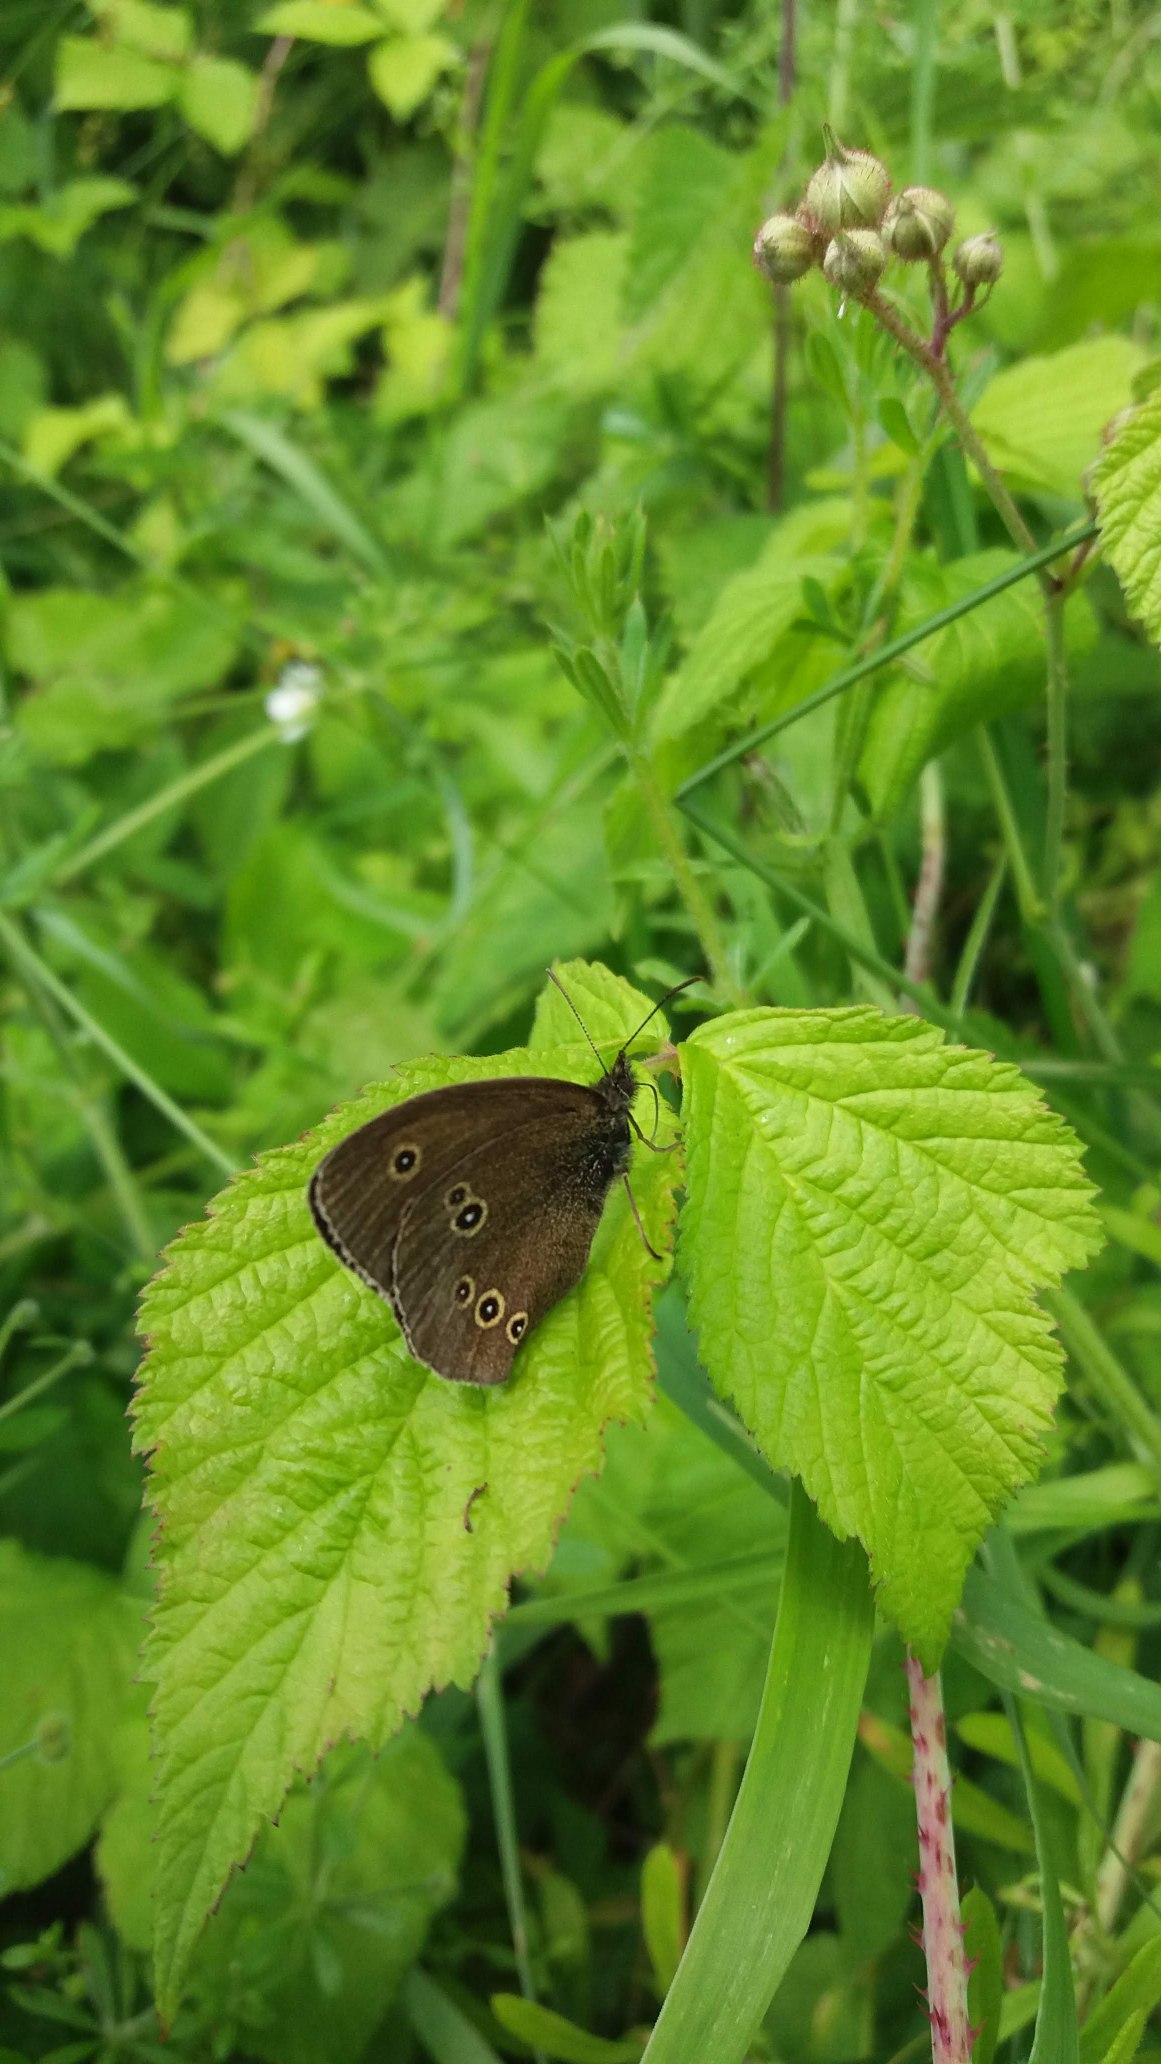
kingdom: Animalia
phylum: Arthropoda
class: Insecta
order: Lepidoptera
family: Nymphalidae
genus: Aphantopus
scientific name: Aphantopus hyperantus
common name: Engrandøje
